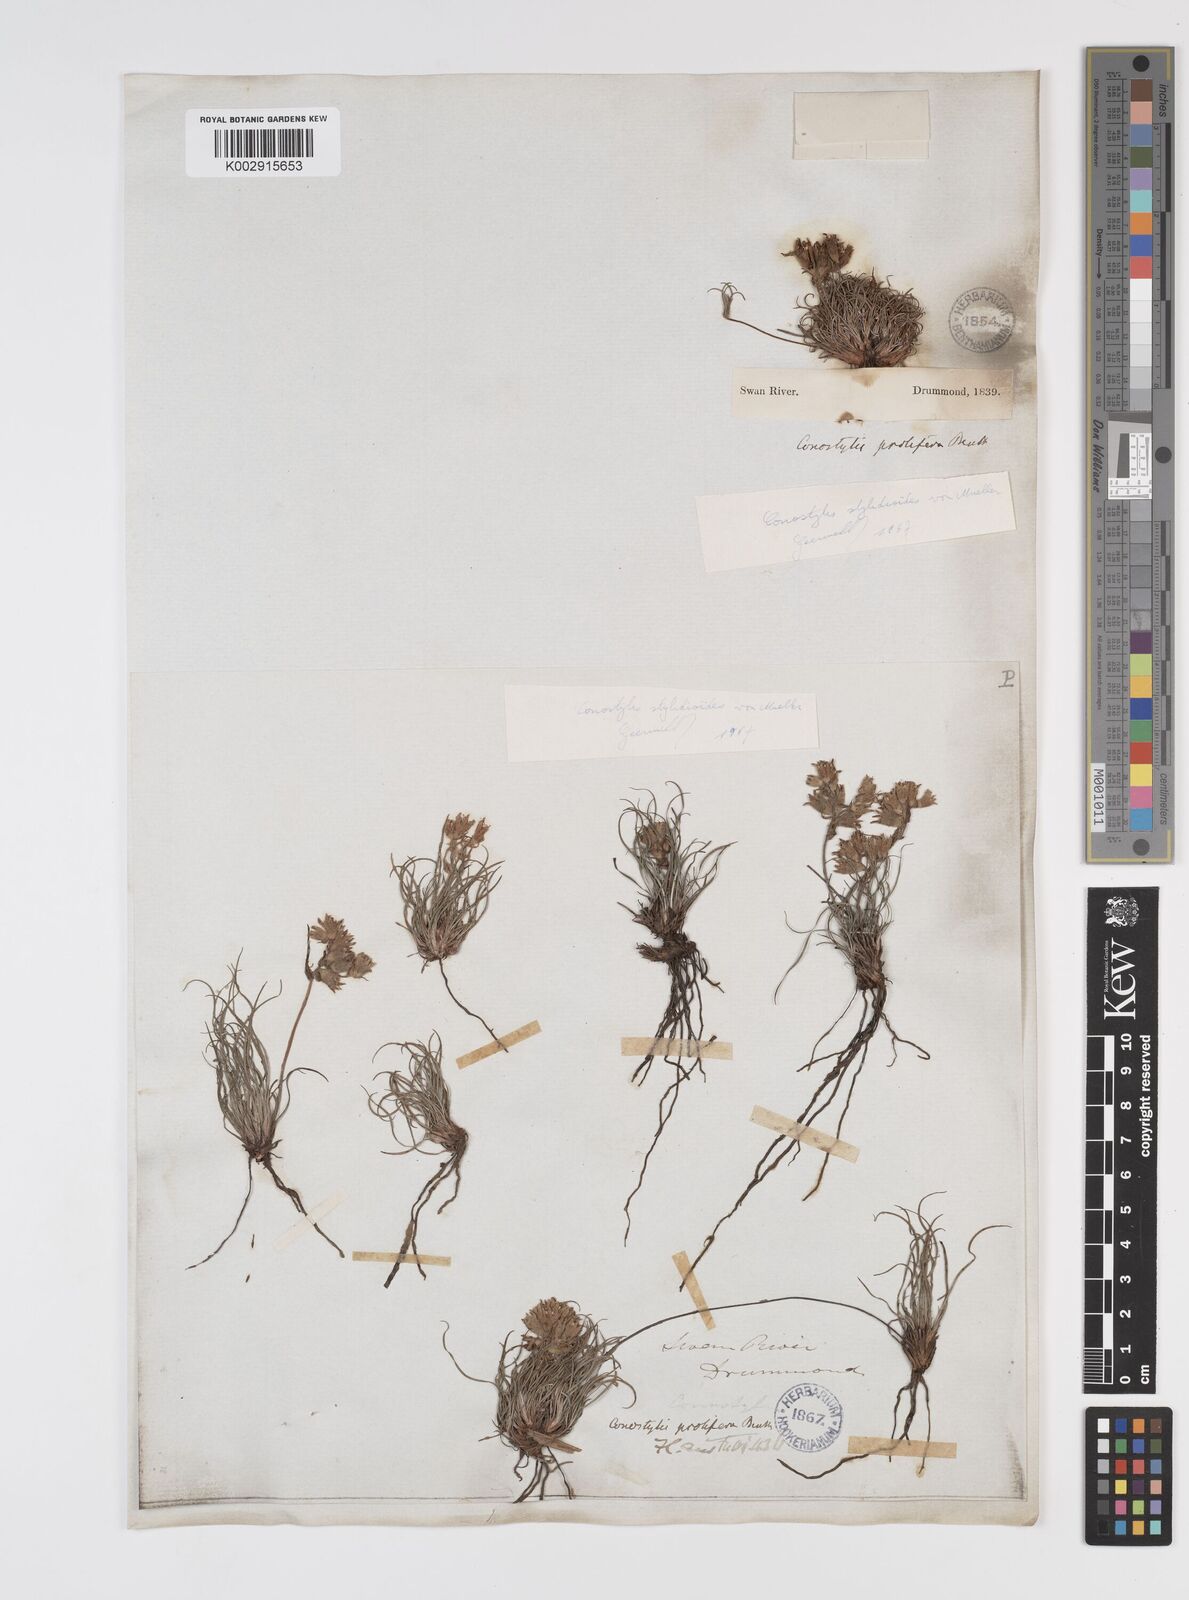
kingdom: Plantae
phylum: Tracheophyta
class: Liliopsida
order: Commelinales
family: Haemodoraceae
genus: Conostylis
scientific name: Conostylis stylidioides
